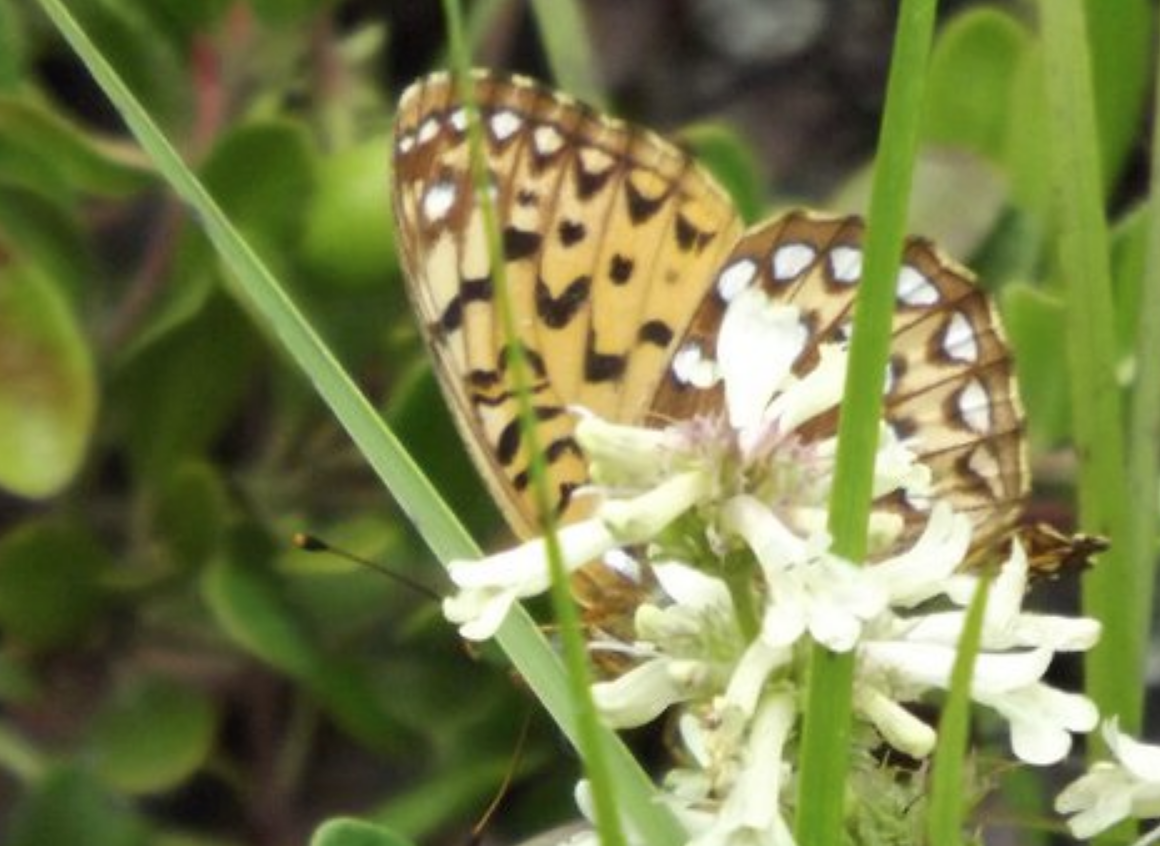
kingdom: Animalia
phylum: Arthropoda
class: Insecta
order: Lepidoptera
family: Nymphalidae
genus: Speyeria
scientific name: Speyeria atlantis
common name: Atlantis Fritillary
